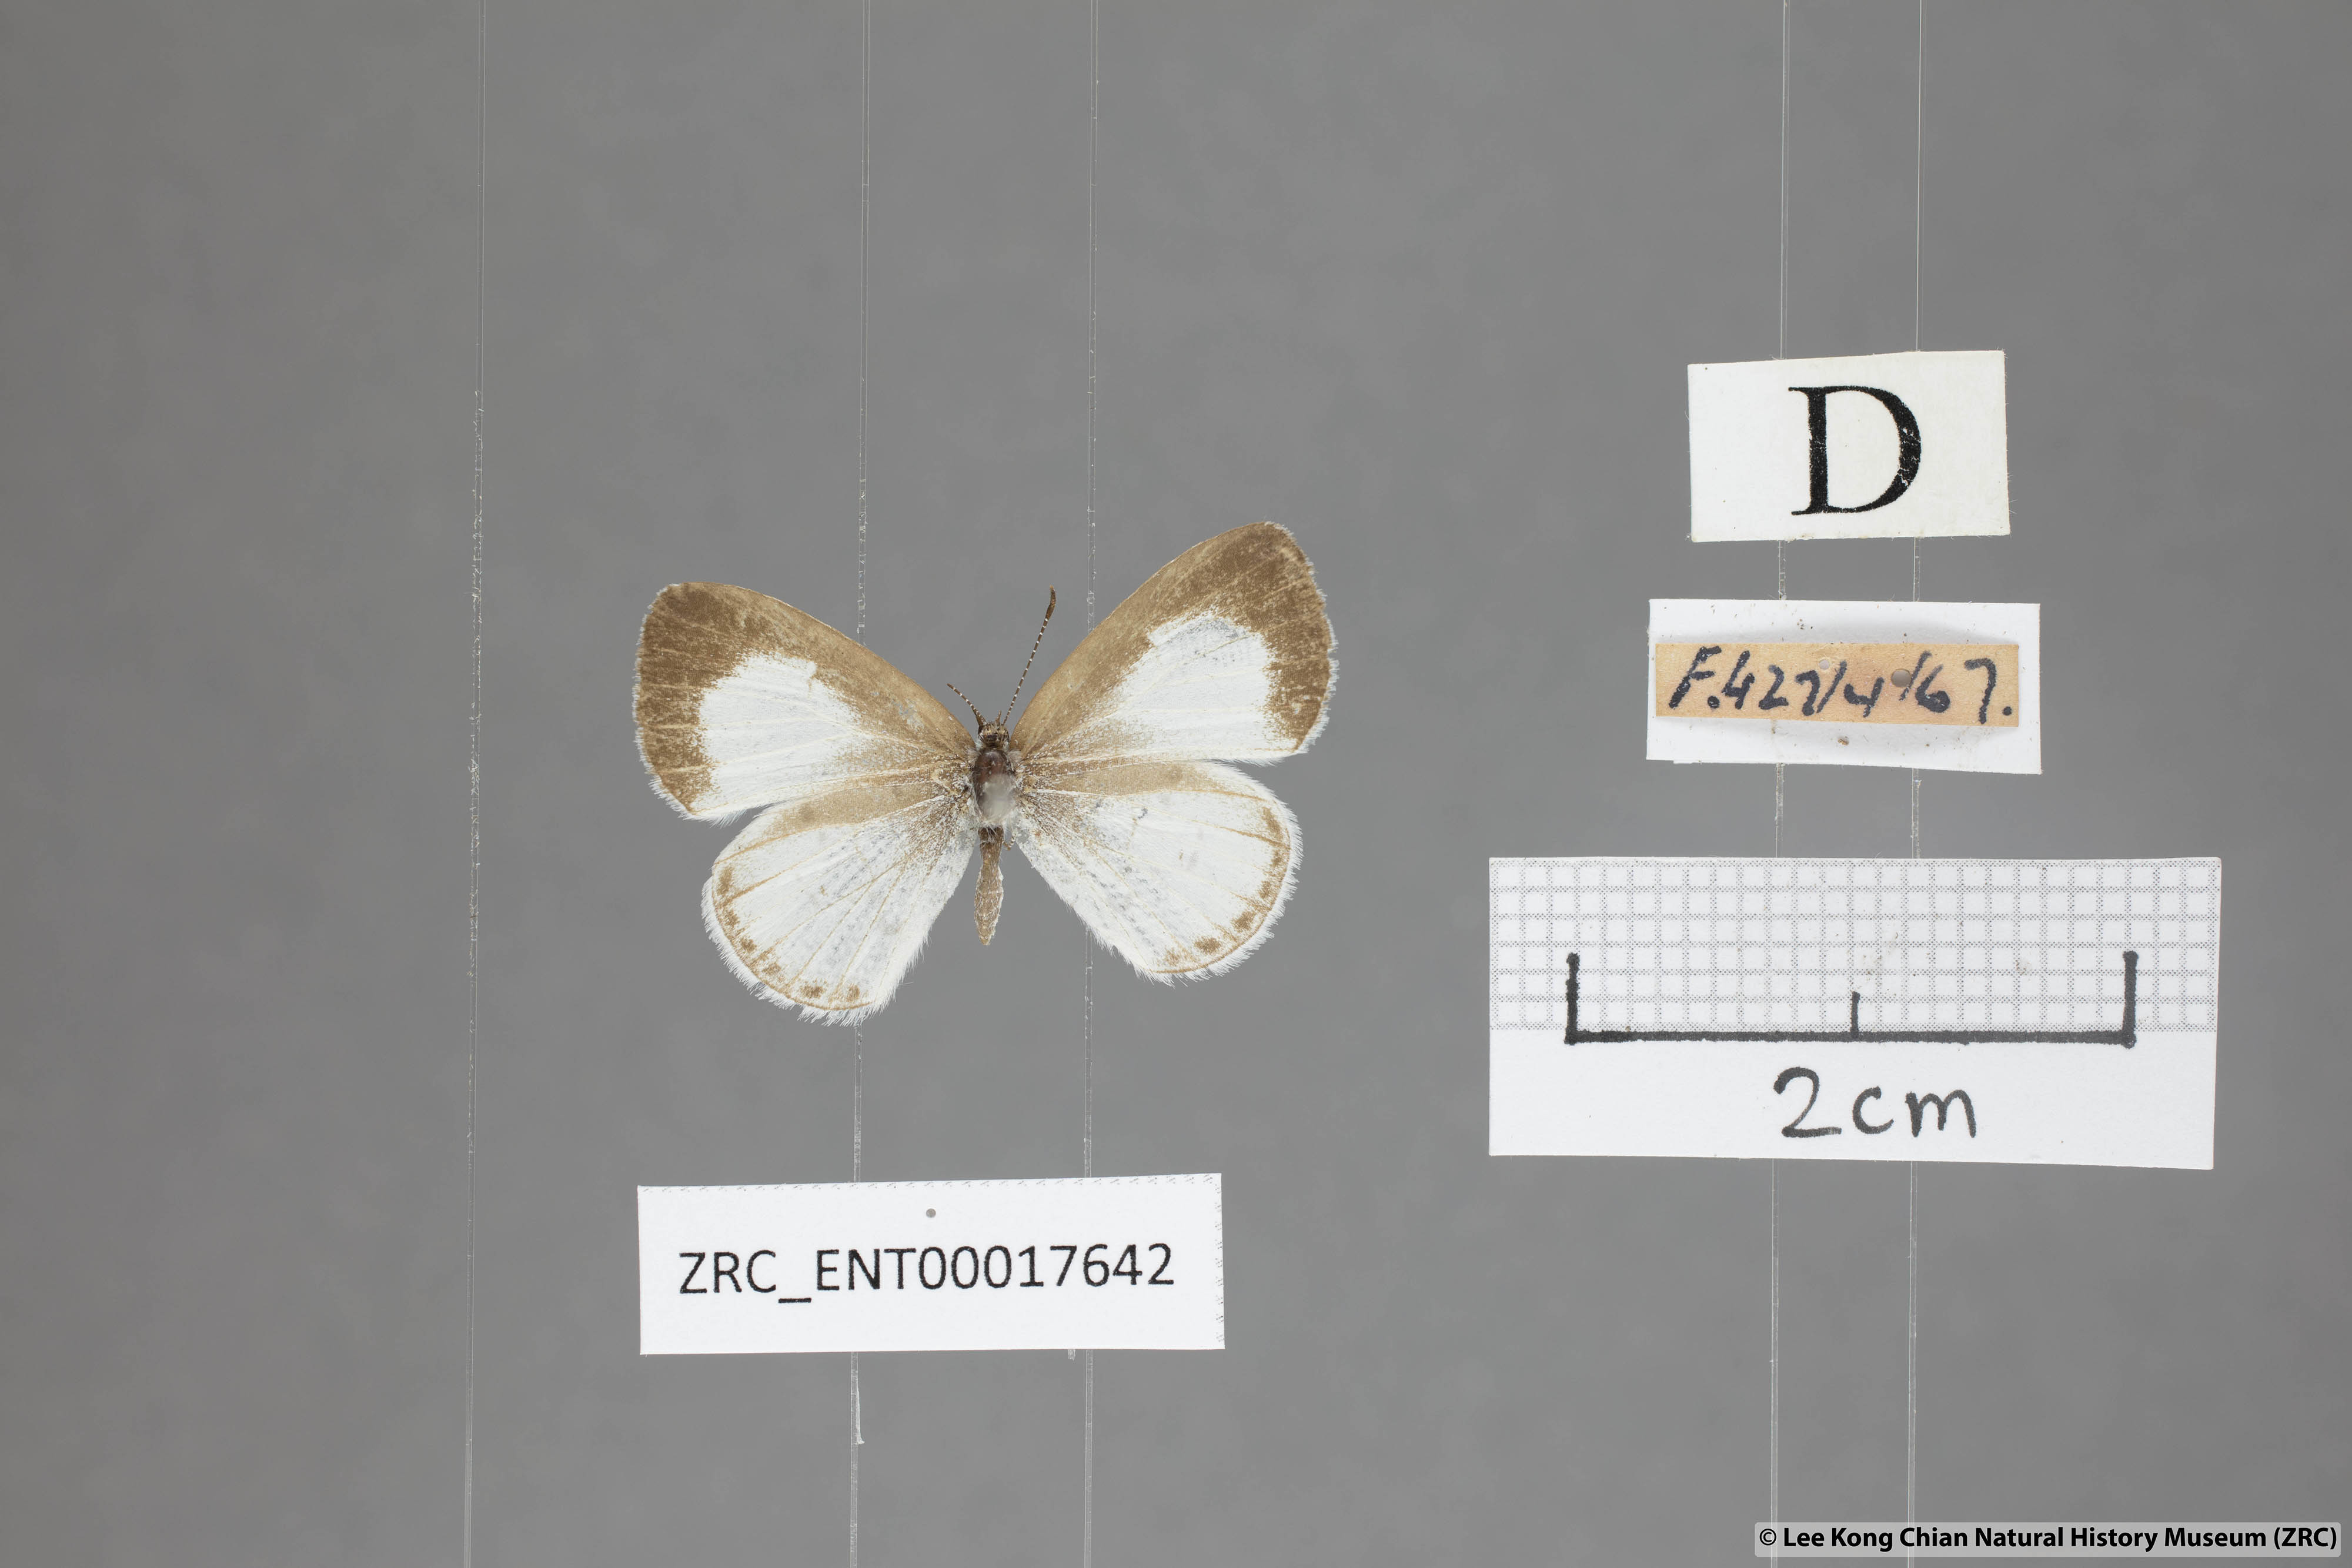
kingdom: Animalia
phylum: Arthropoda
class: Insecta
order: Lepidoptera
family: Lycaenidae
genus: Udara
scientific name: Udara akasa
